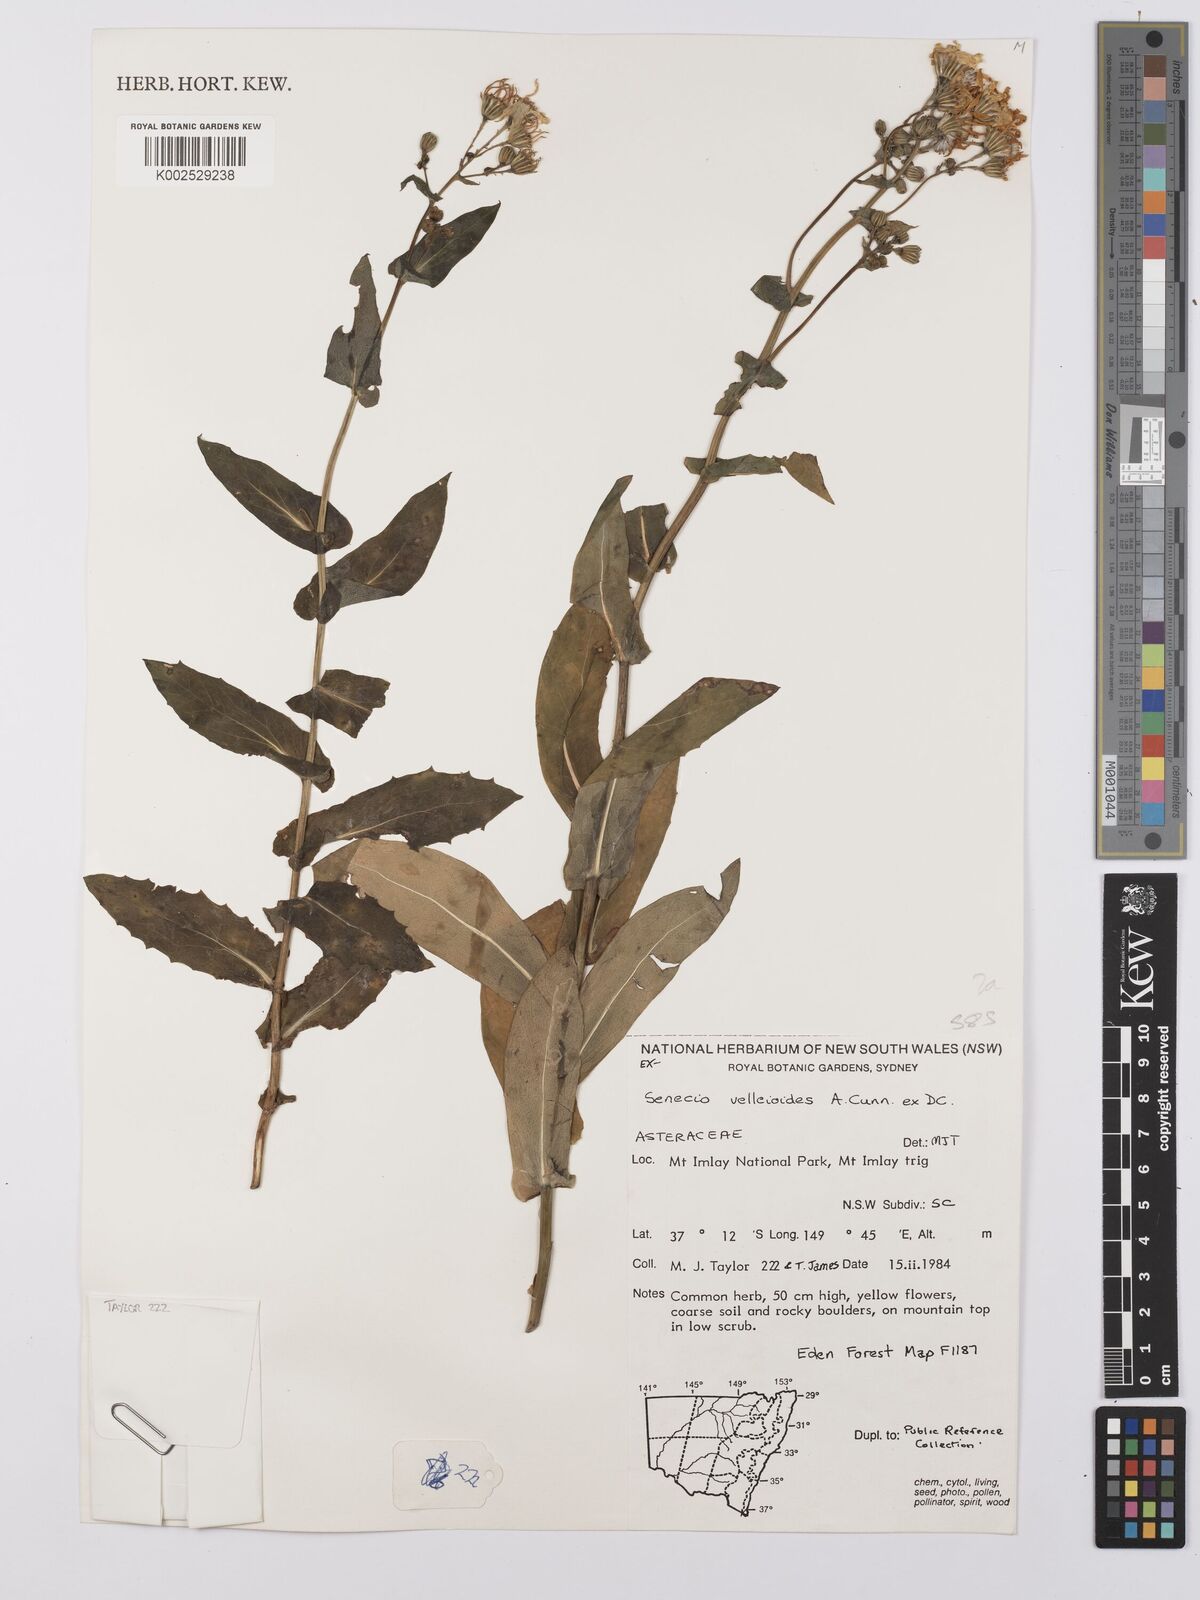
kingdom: Plantae
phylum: Tracheophyta
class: Magnoliopsida
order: Asterales
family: Asteraceae
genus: Lordhowea
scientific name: Lordhowea velleioides
